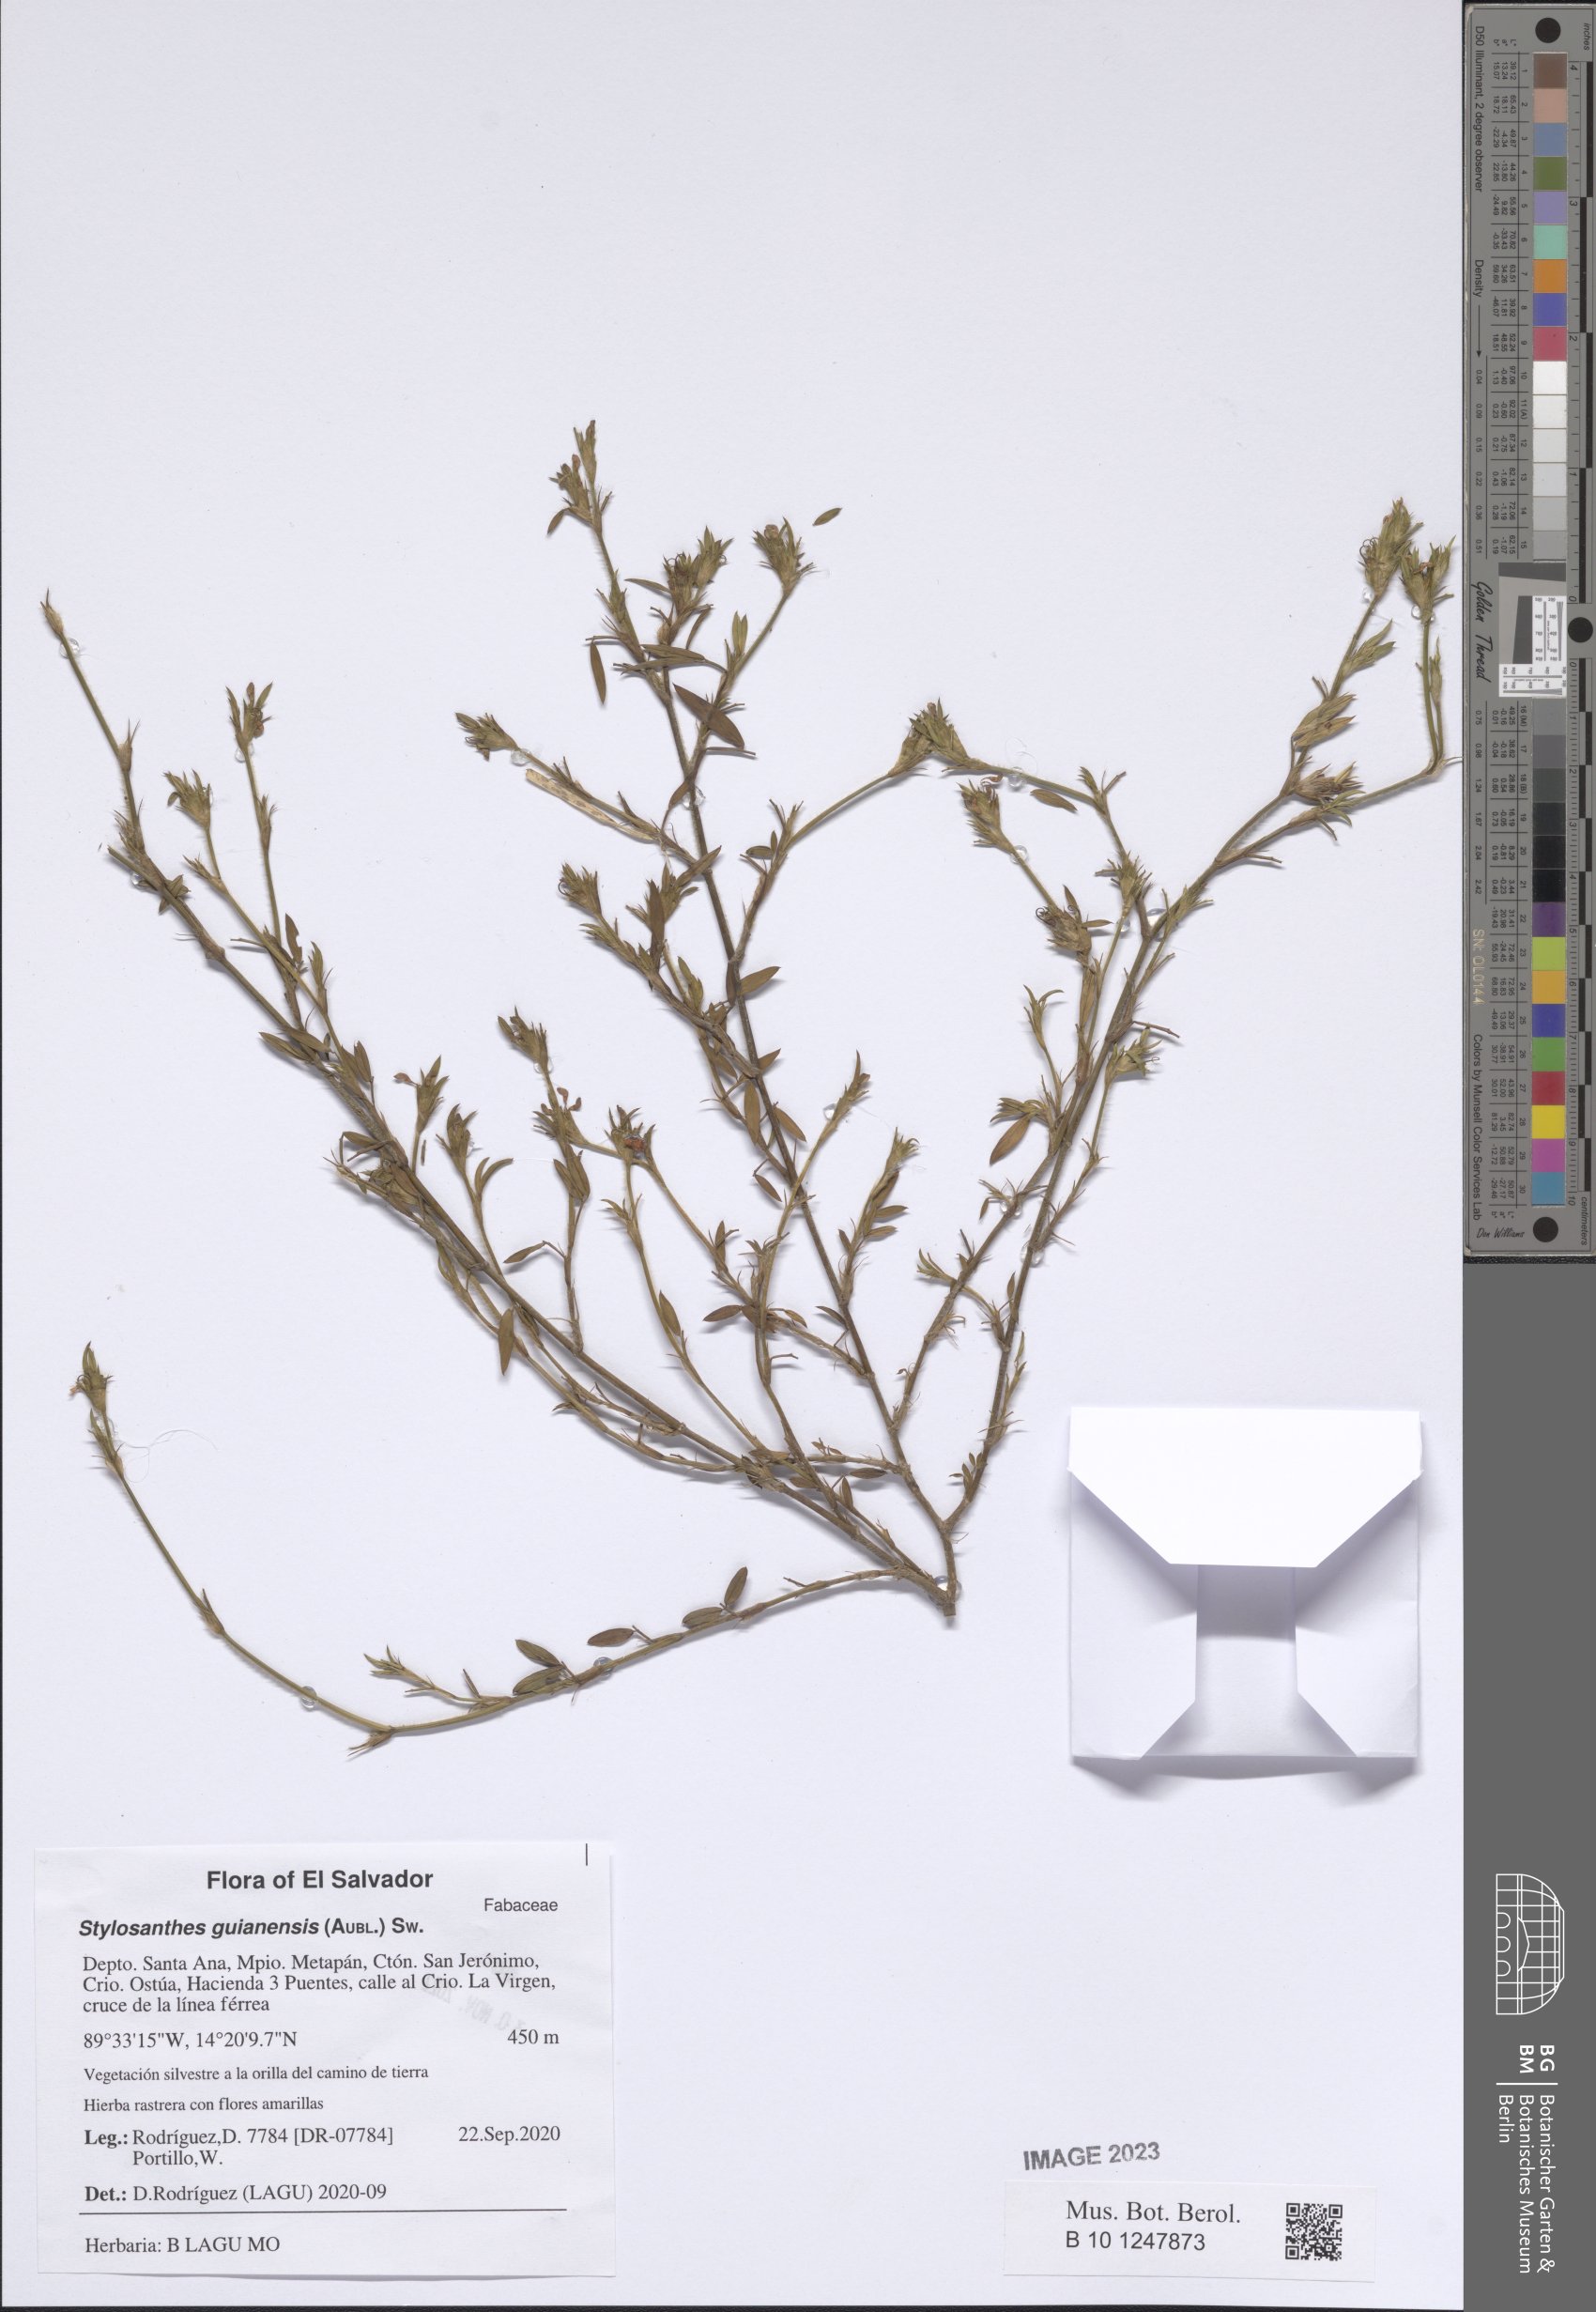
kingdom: Plantae
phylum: Tracheophyta
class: Magnoliopsida
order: Fabales
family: Fabaceae
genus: Stylosanthes
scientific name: Stylosanthes guianensis
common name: Pencil flower
